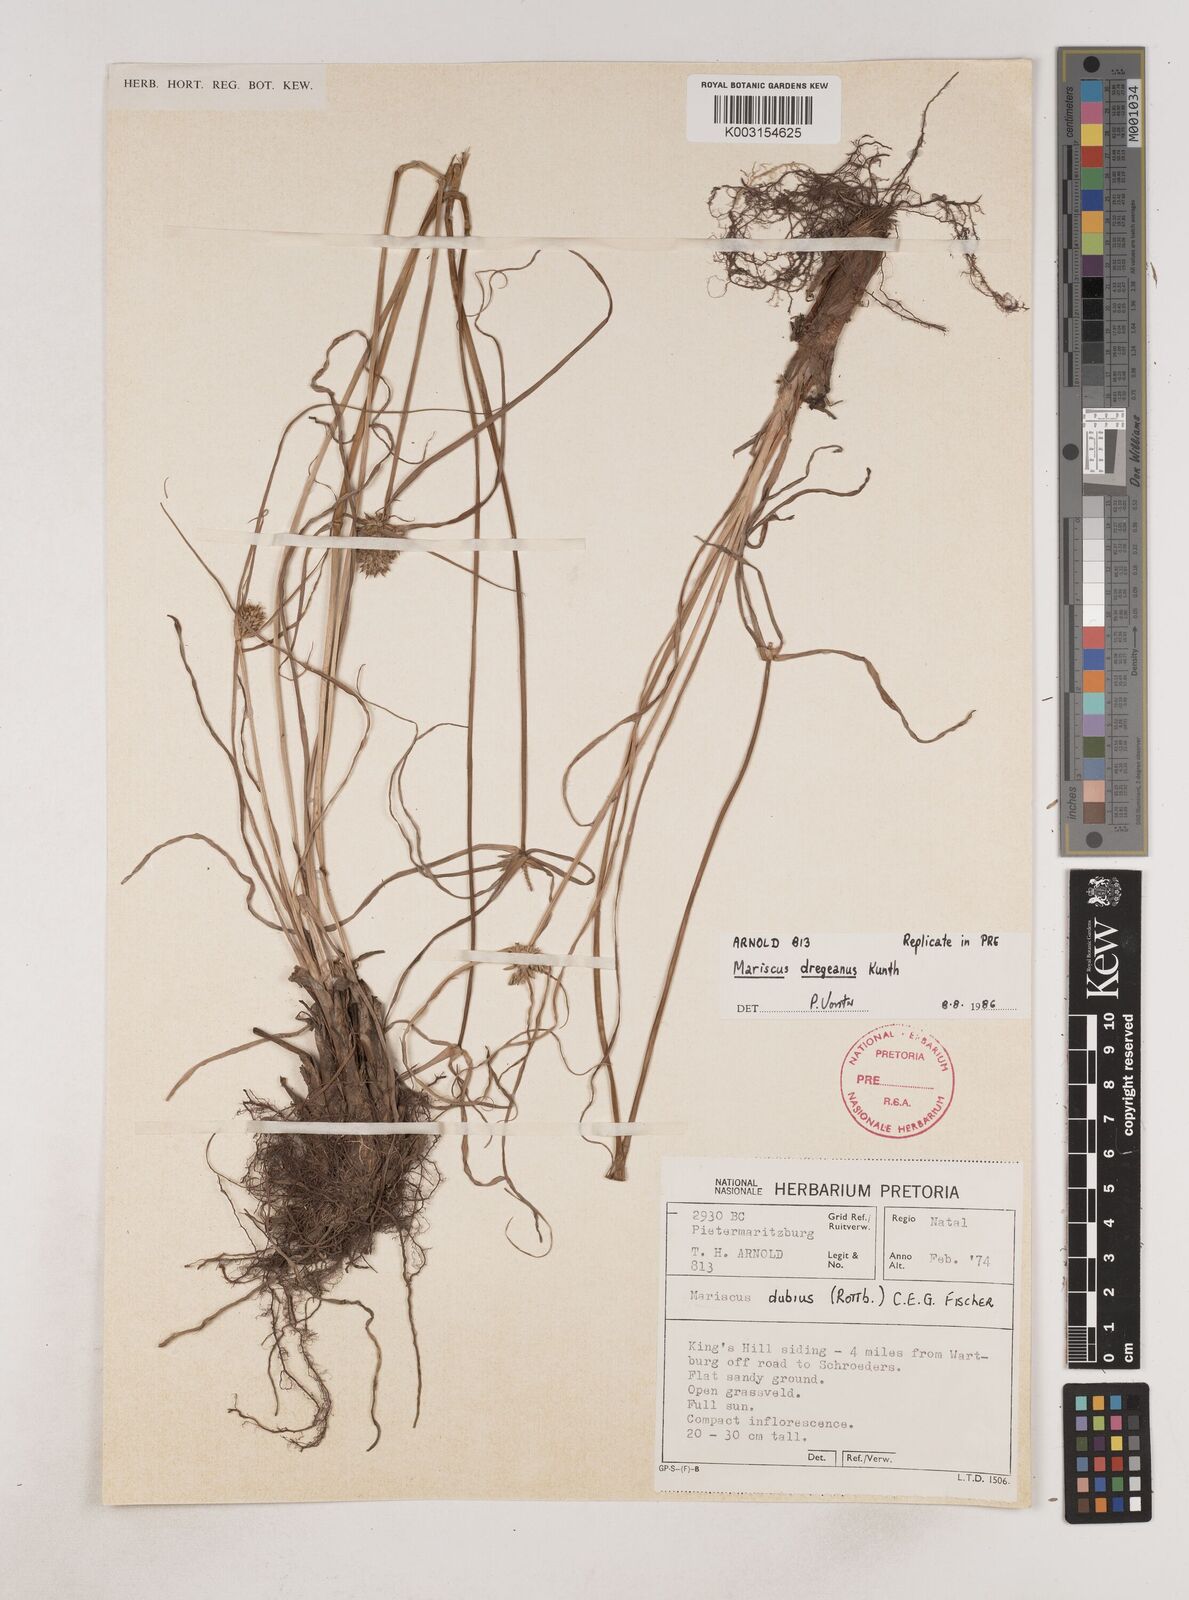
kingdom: Plantae
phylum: Tracheophyta
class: Liliopsida
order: Poales
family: Cyperaceae
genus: Cyperus
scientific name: Cyperus dubius
